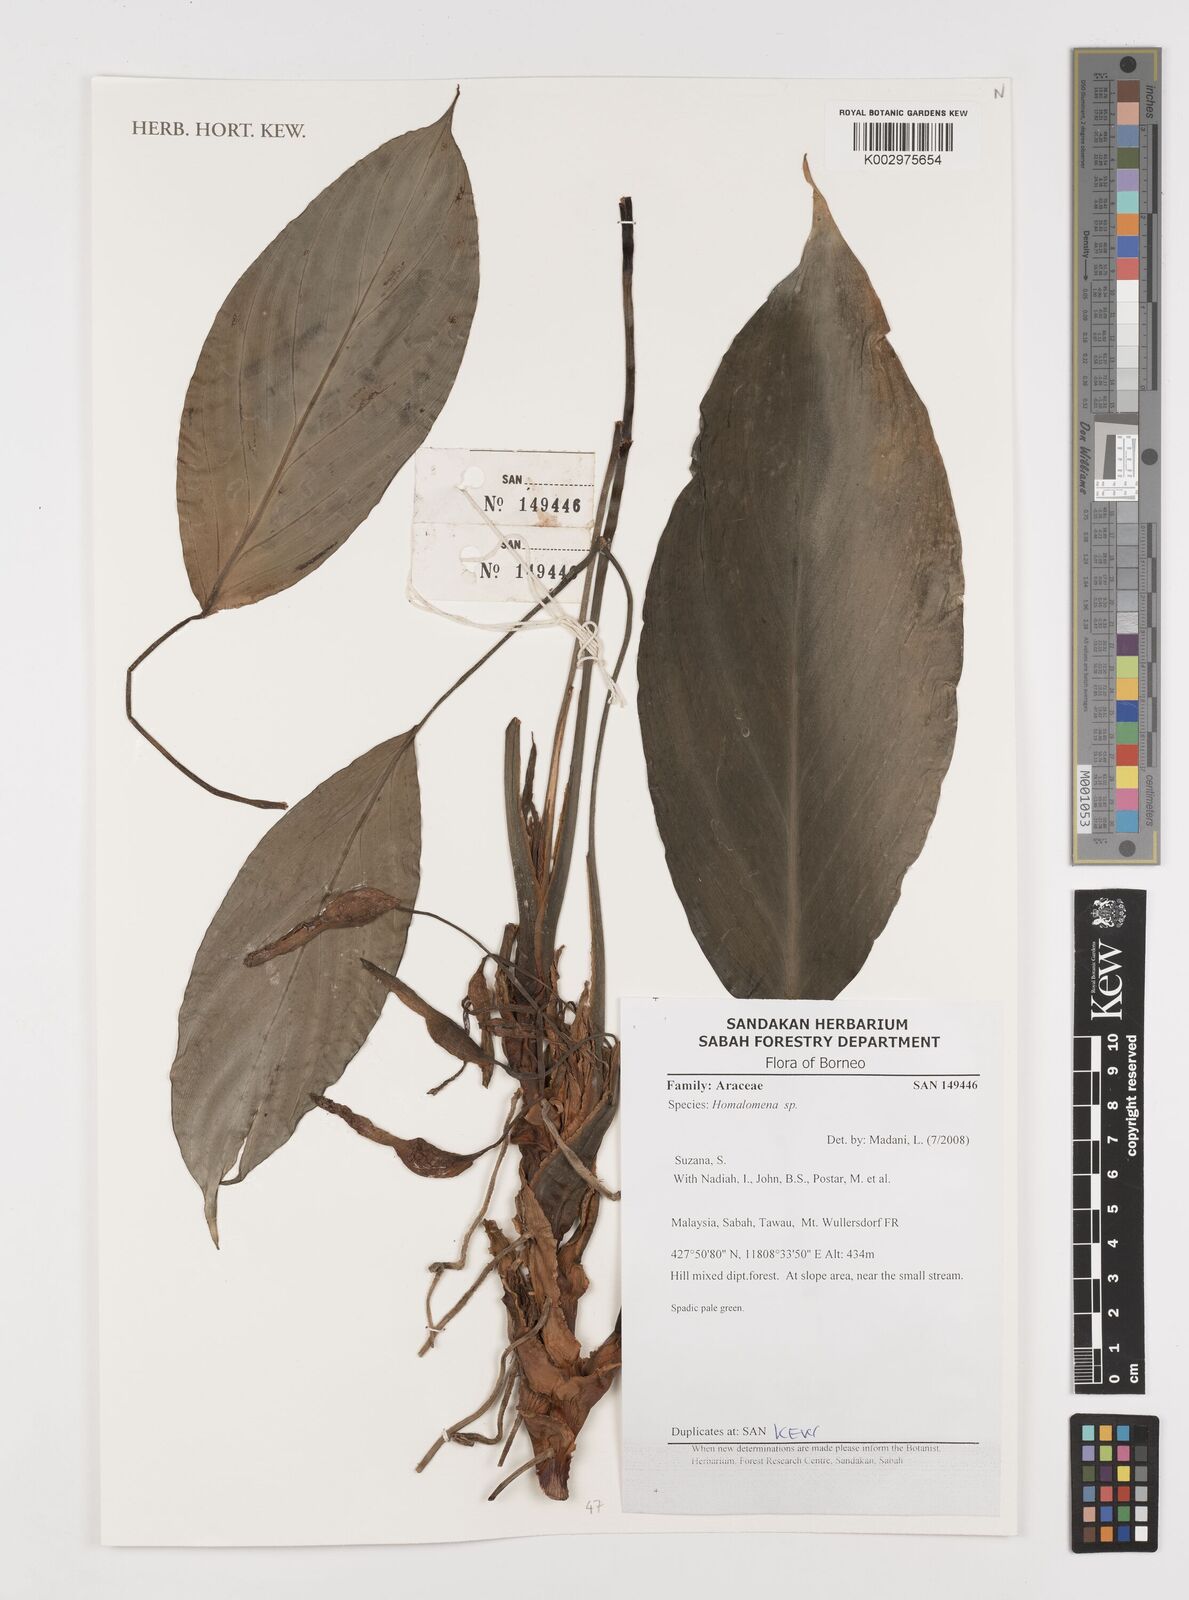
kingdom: Plantae
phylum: Tracheophyta
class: Liliopsida
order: Alismatales
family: Araceae
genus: Homalomena
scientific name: Homalomena
